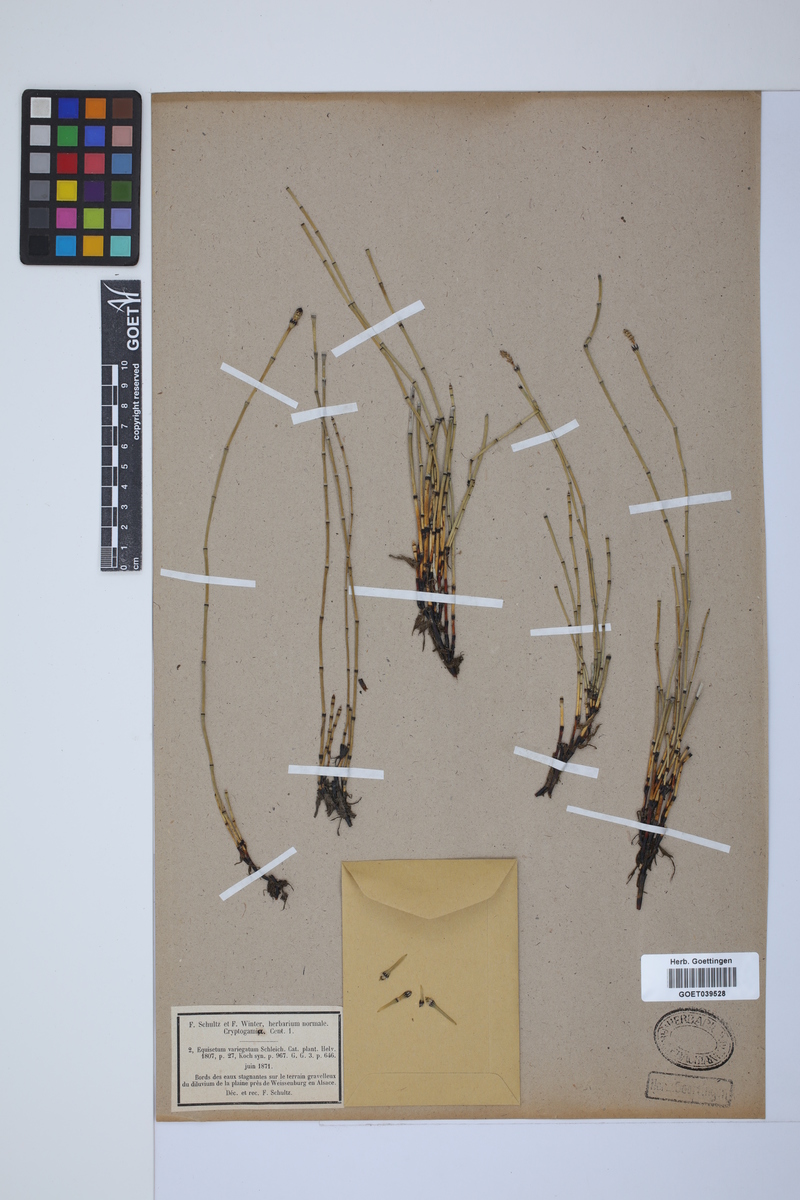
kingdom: Plantae
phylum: Tracheophyta
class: Polypodiopsida
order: Equisetales
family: Equisetaceae
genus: Equisetum
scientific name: Equisetum variegatum
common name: Variegated horsetail
